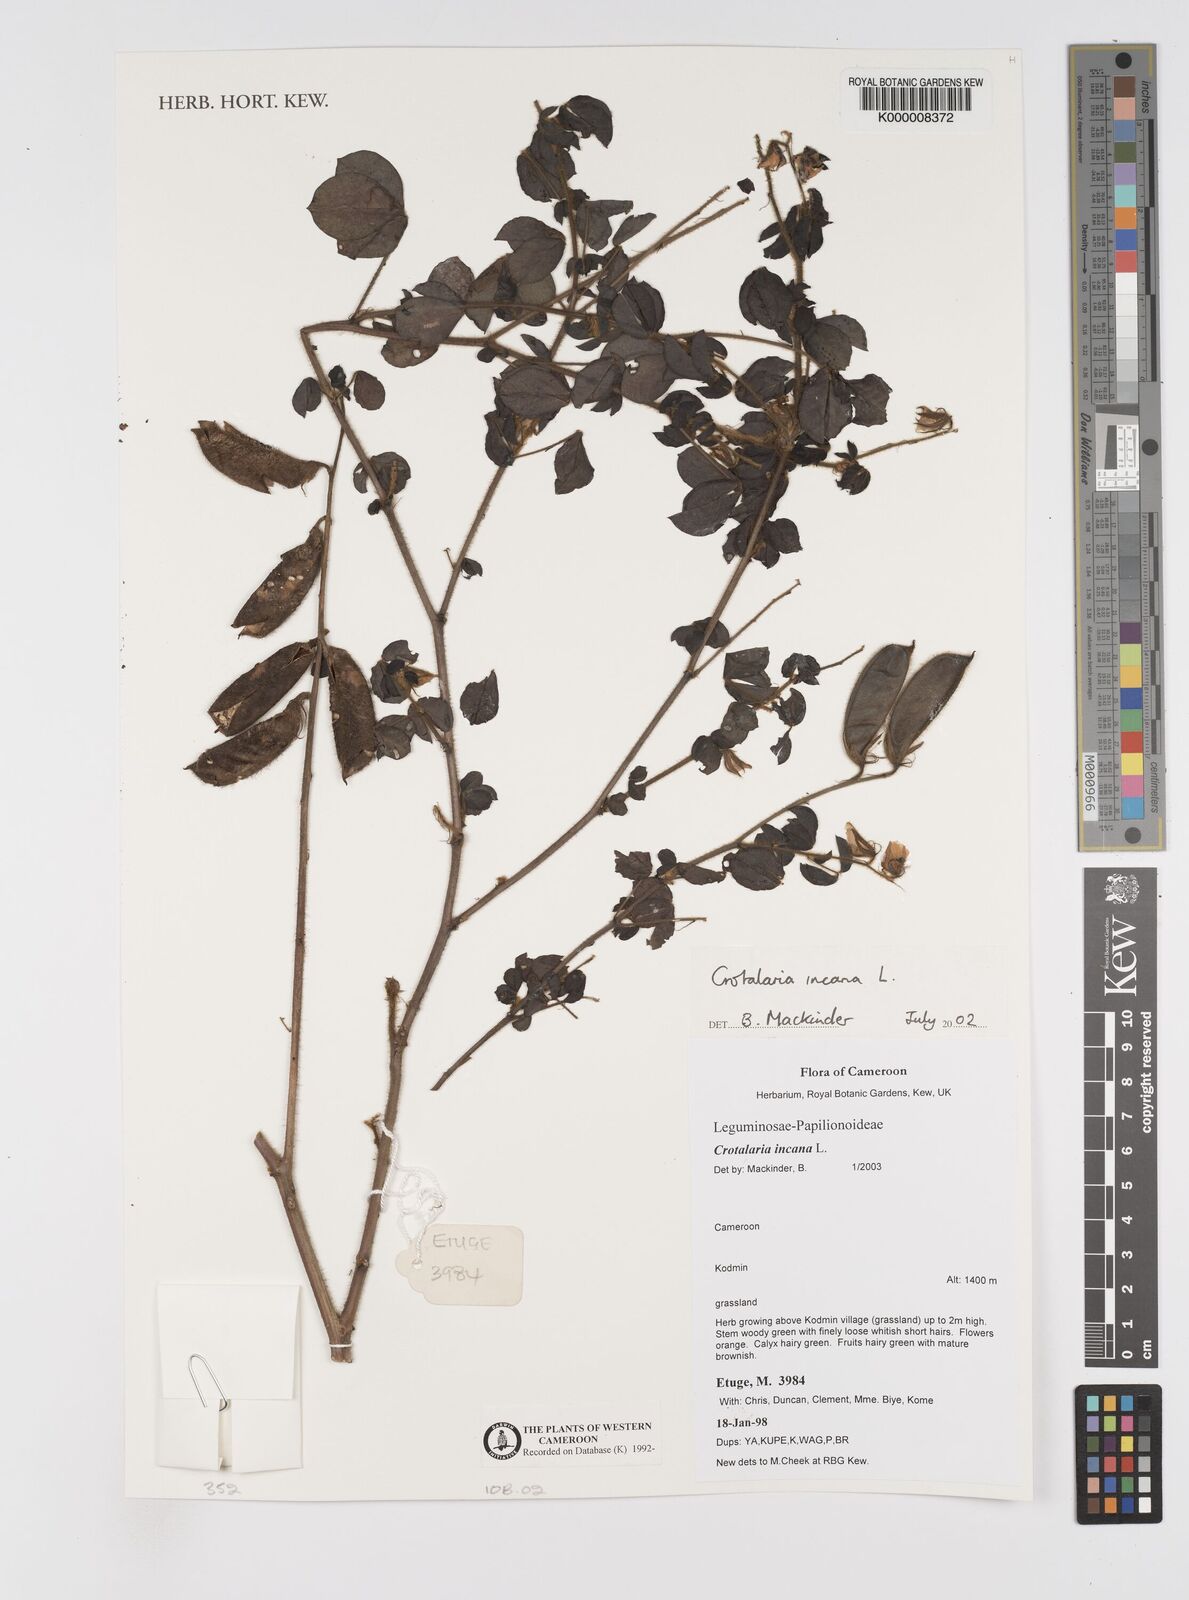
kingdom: Plantae
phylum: Tracheophyta
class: Magnoliopsida
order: Fabales
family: Fabaceae
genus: Crotalaria
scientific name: Crotalaria incana
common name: Shakeshake
